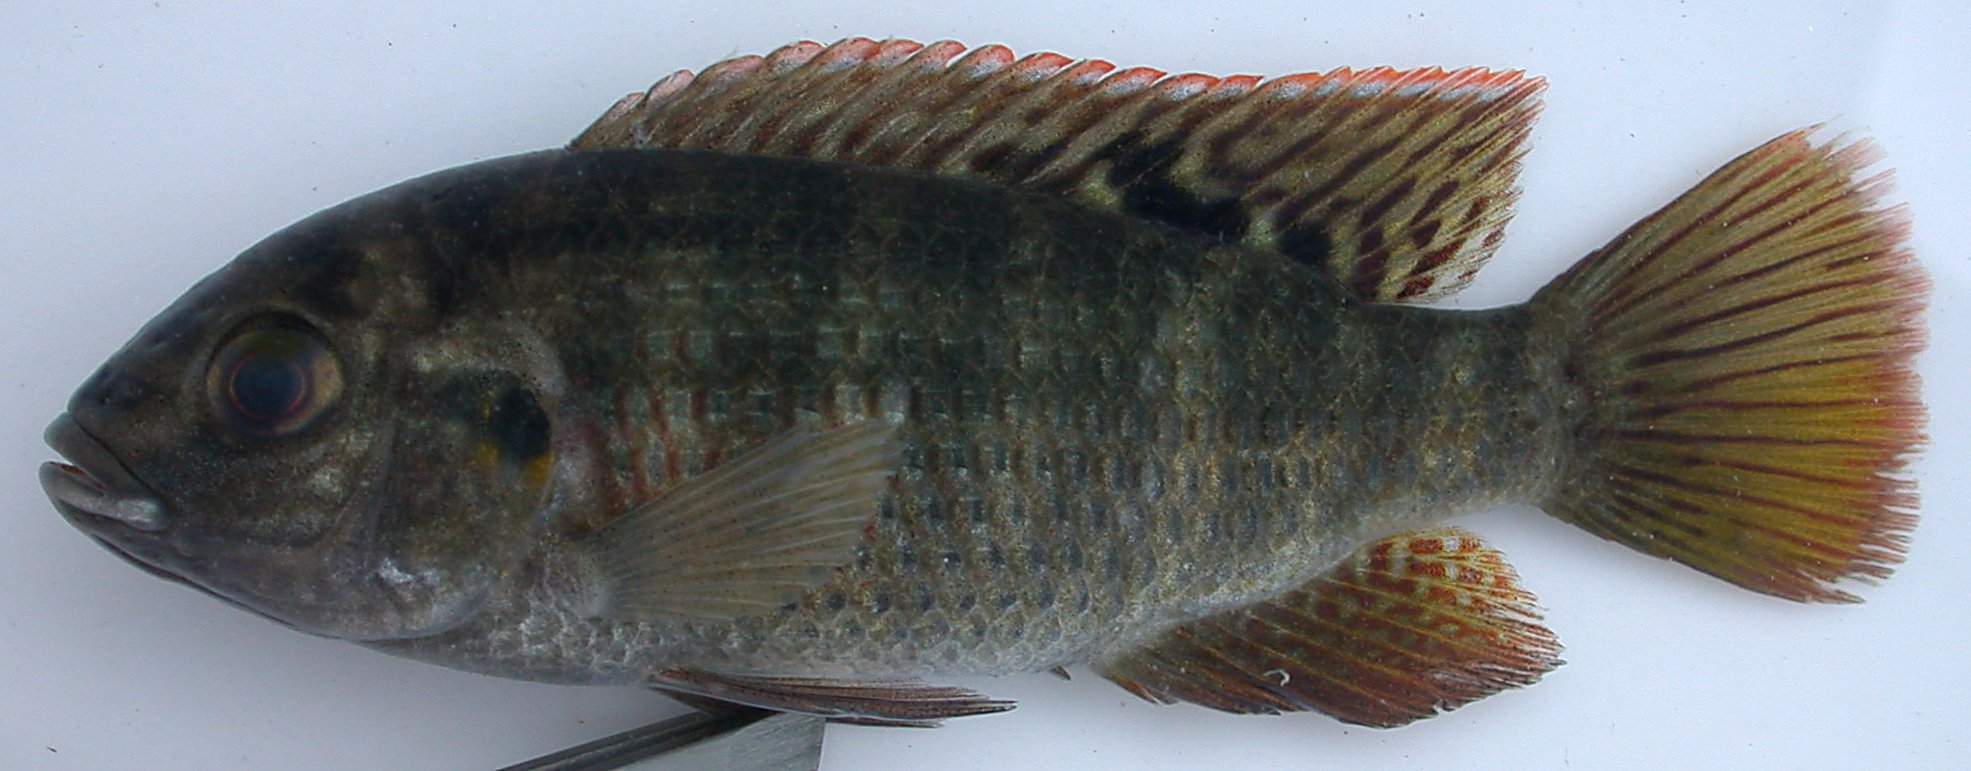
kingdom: Animalia
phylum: Chordata
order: Perciformes
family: Cichlidae
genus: Tilapia
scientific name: Tilapia sparrmanii
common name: Banded tilapia
